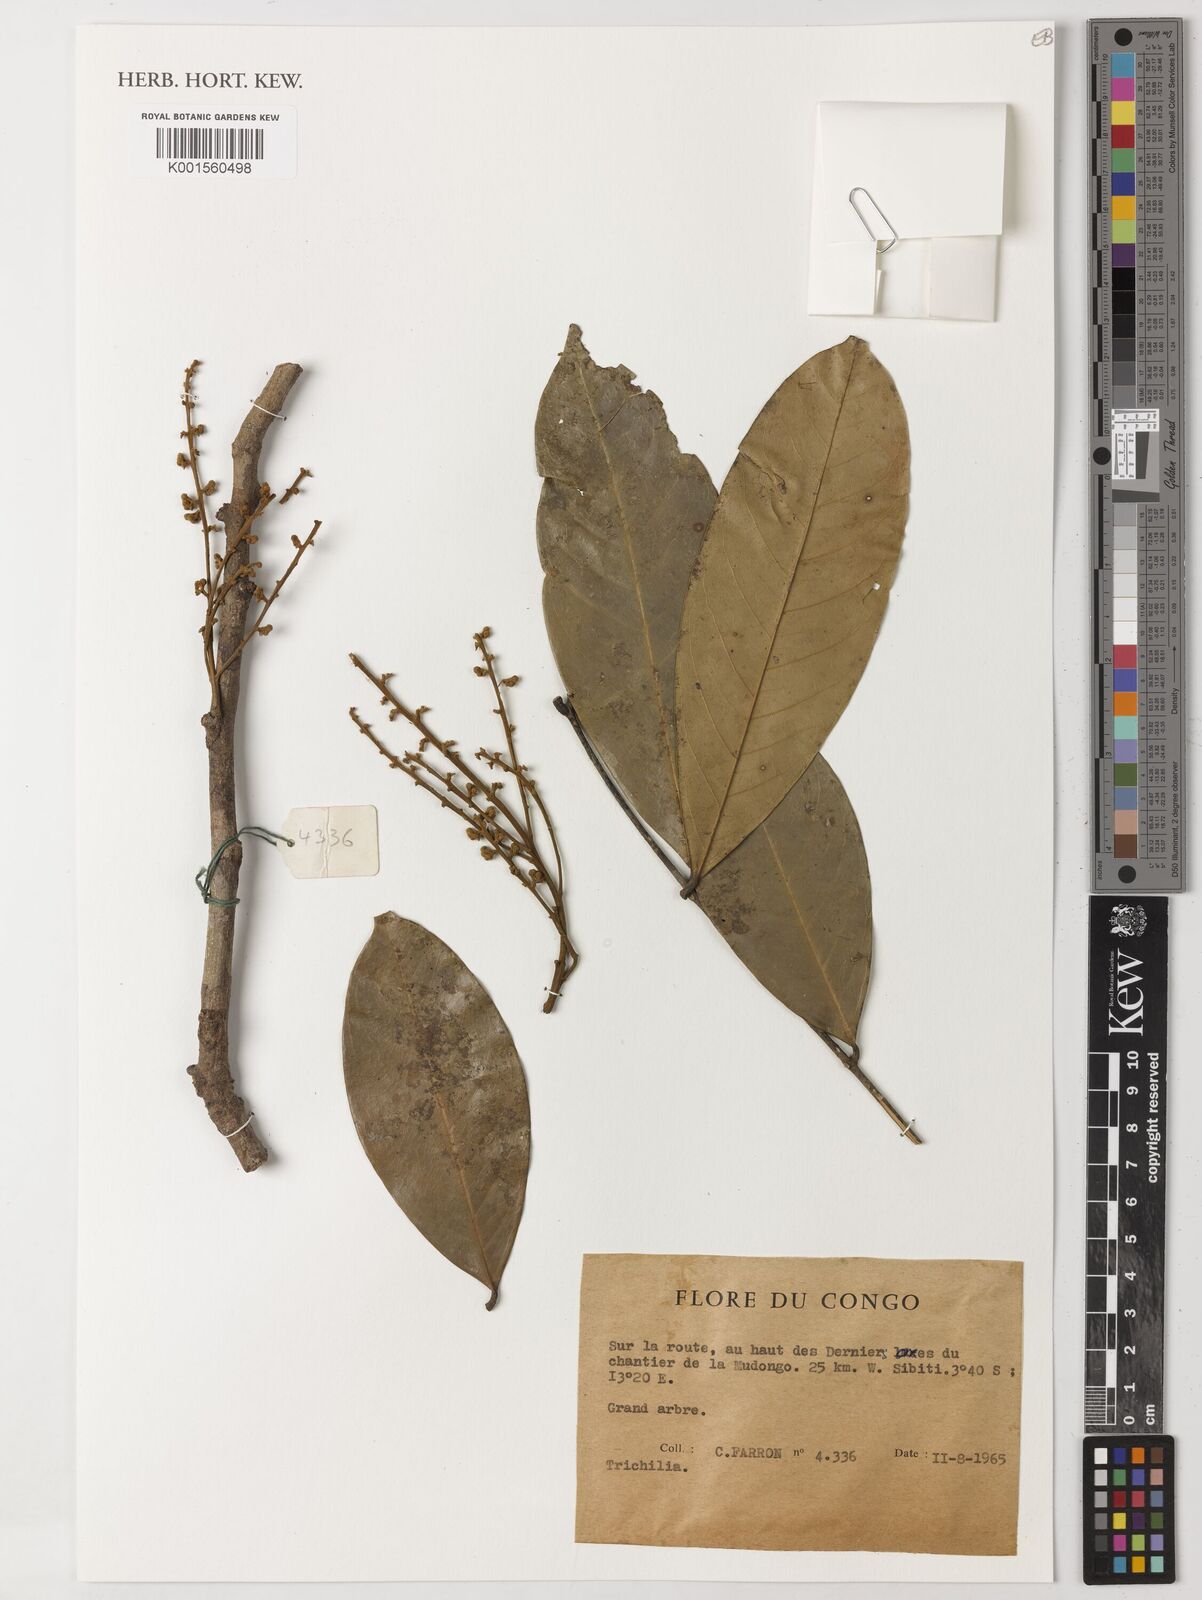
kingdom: Plantae
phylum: Tracheophyta
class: Magnoliopsida
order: Sapindales
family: Meliaceae
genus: Trichilia
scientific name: Trichilia
